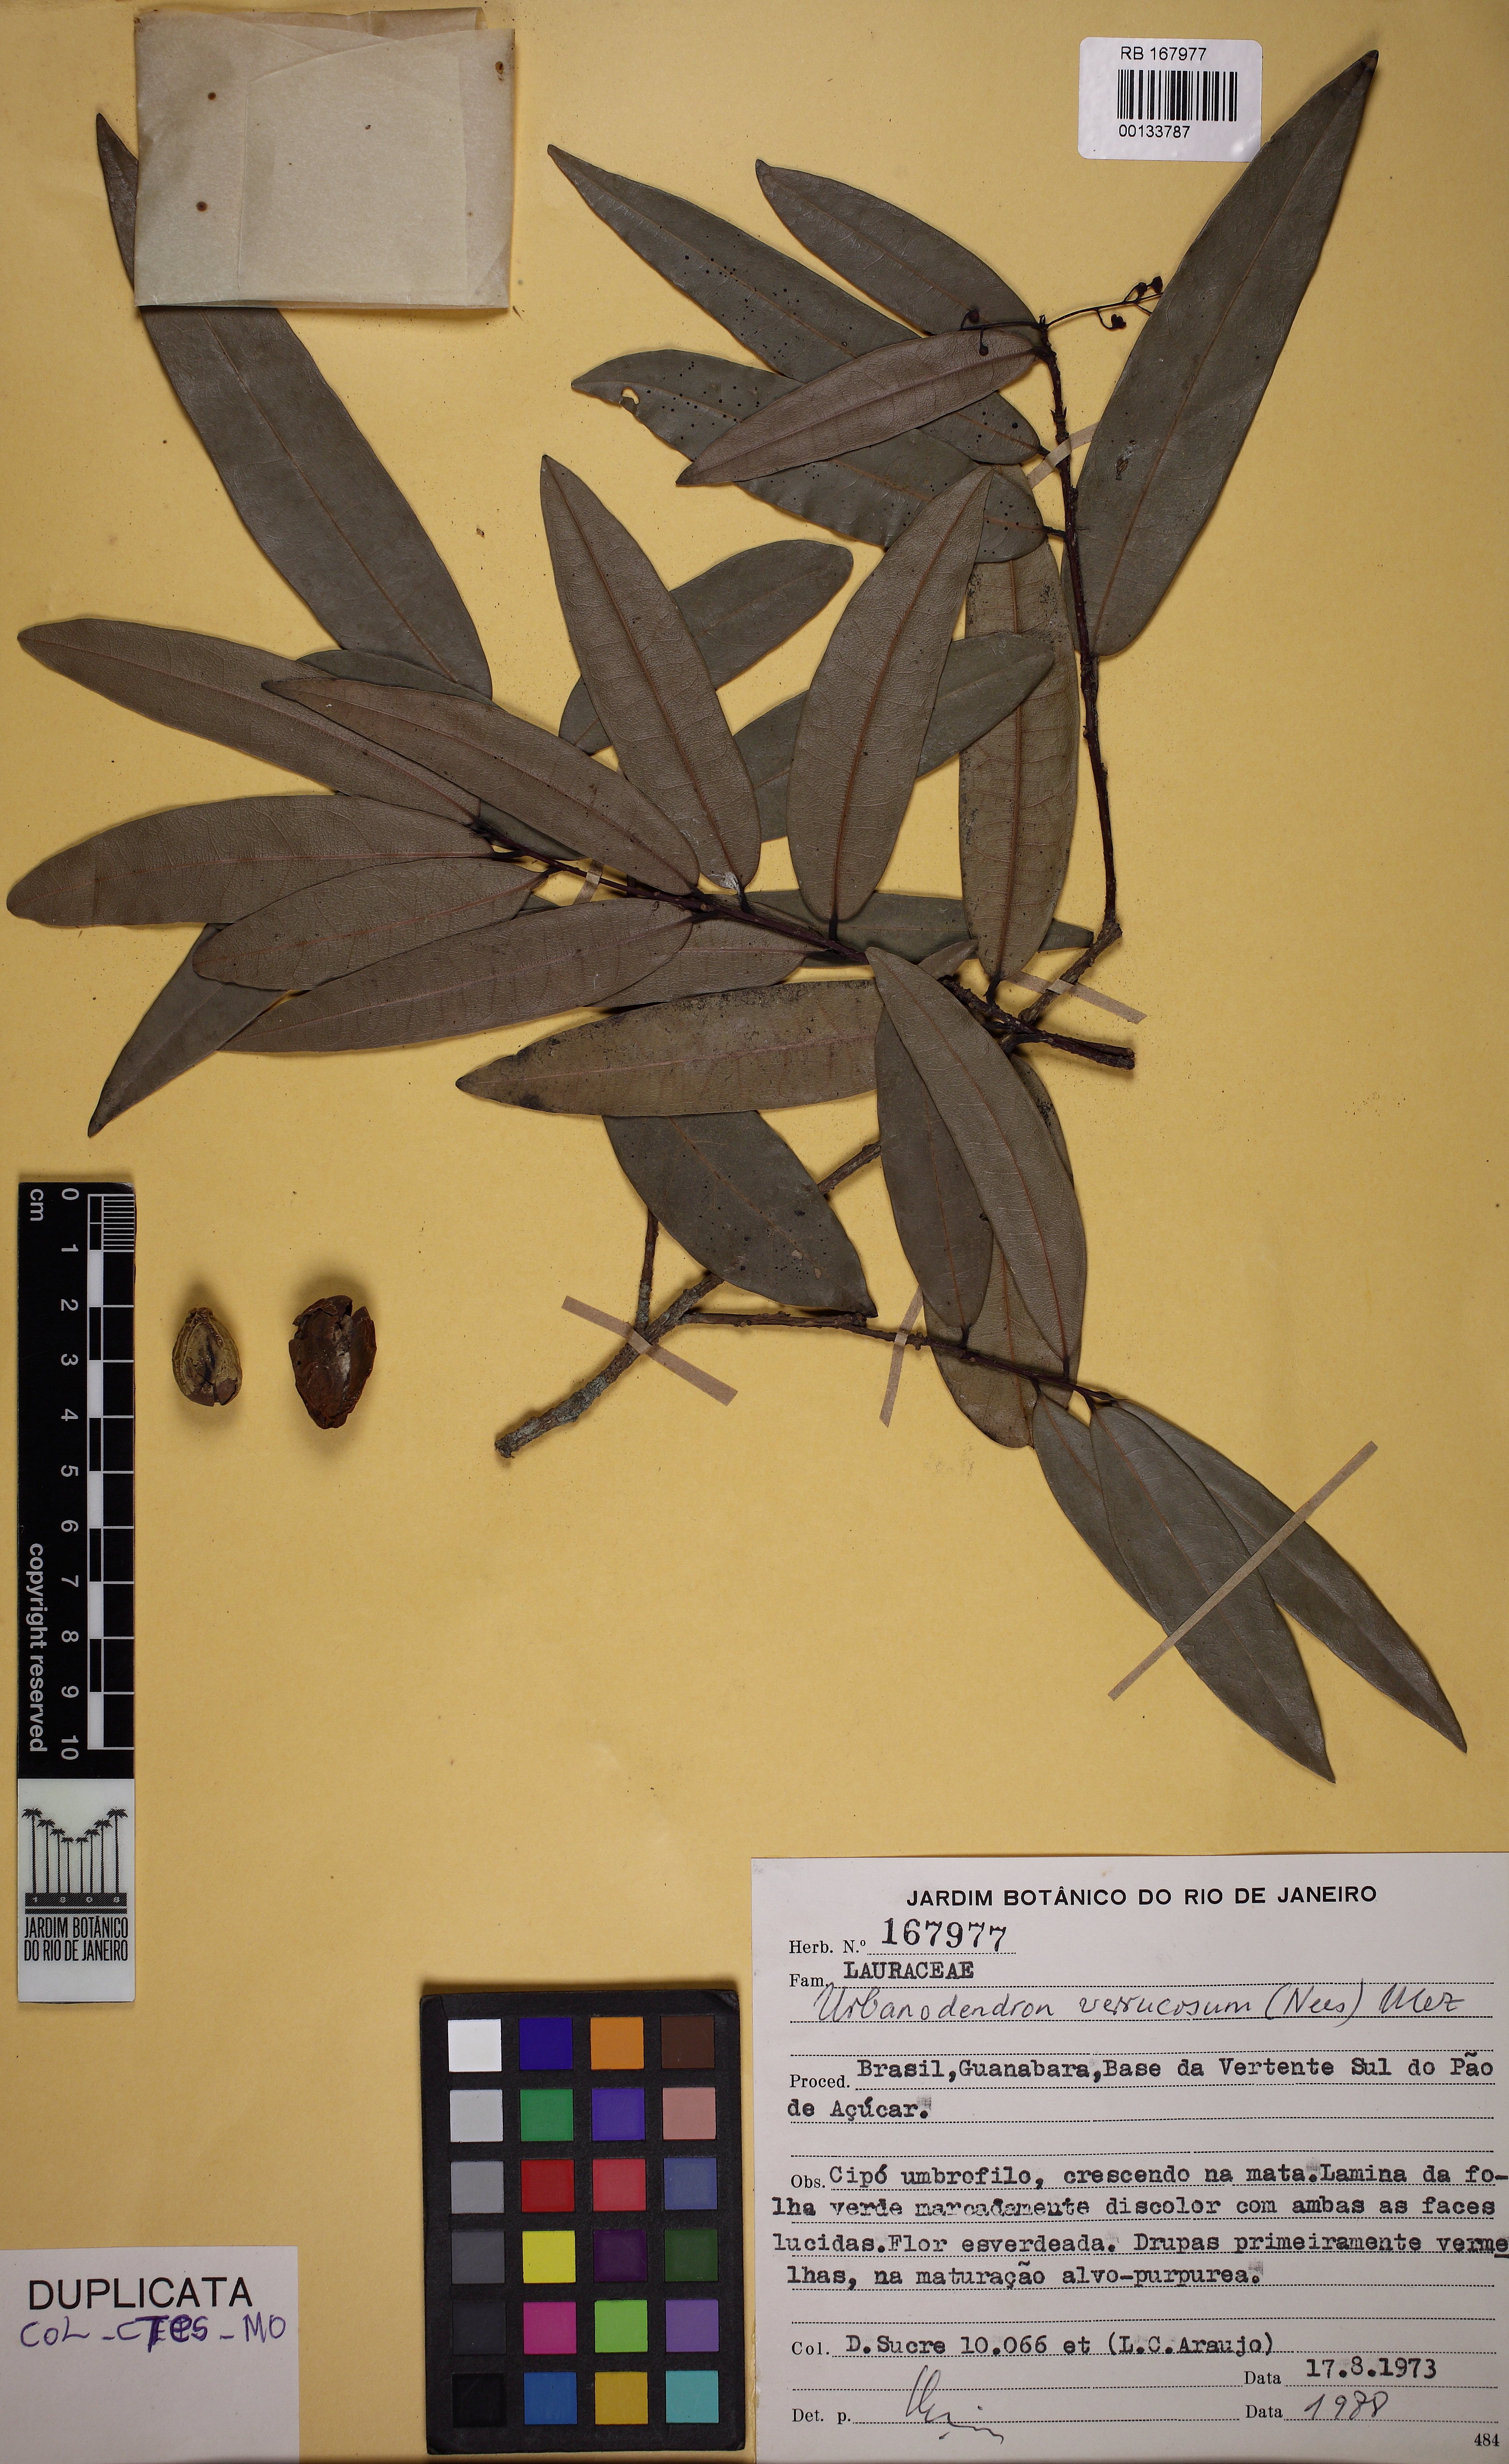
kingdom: Plantae
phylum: Tracheophyta
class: Magnoliopsida
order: Laurales
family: Lauraceae
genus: Urbanodendron
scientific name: Urbanodendron verrucosum
